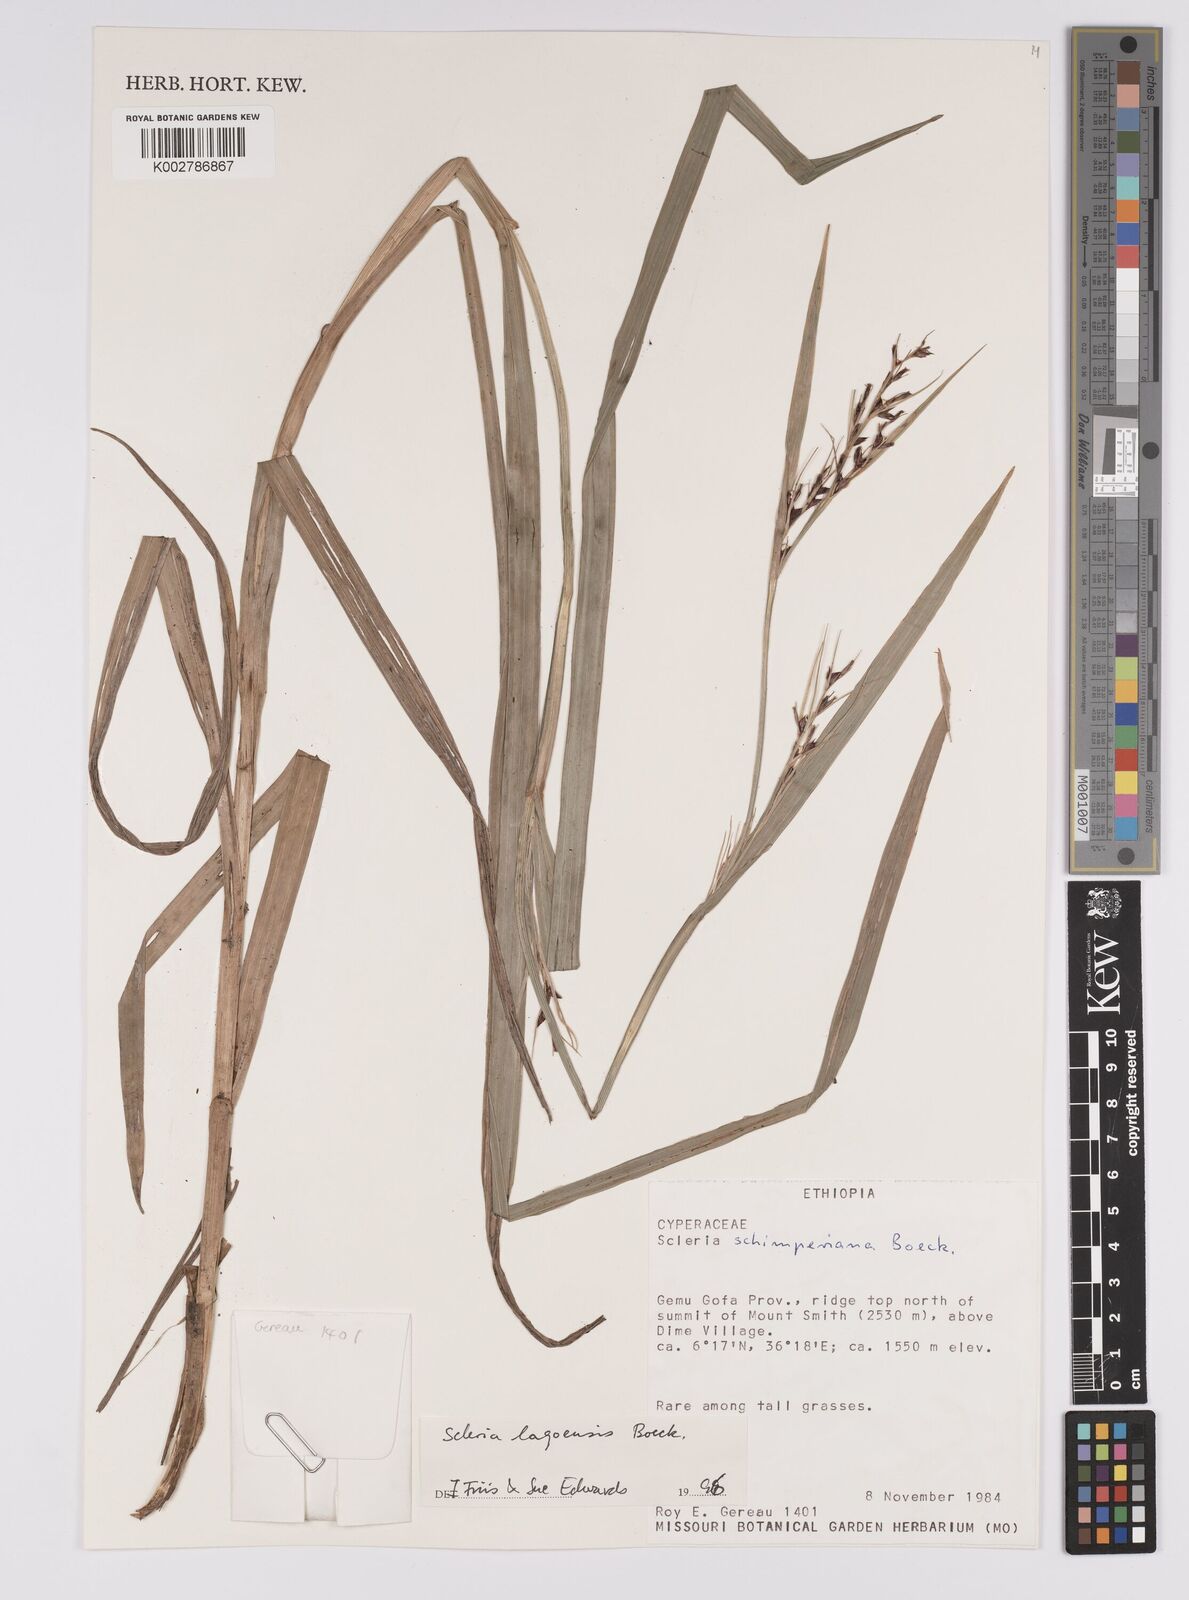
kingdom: Plantae
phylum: Tracheophyta
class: Liliopsida
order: Poales
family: Cyperaceae
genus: Scleria
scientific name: Scleria lagoensis
